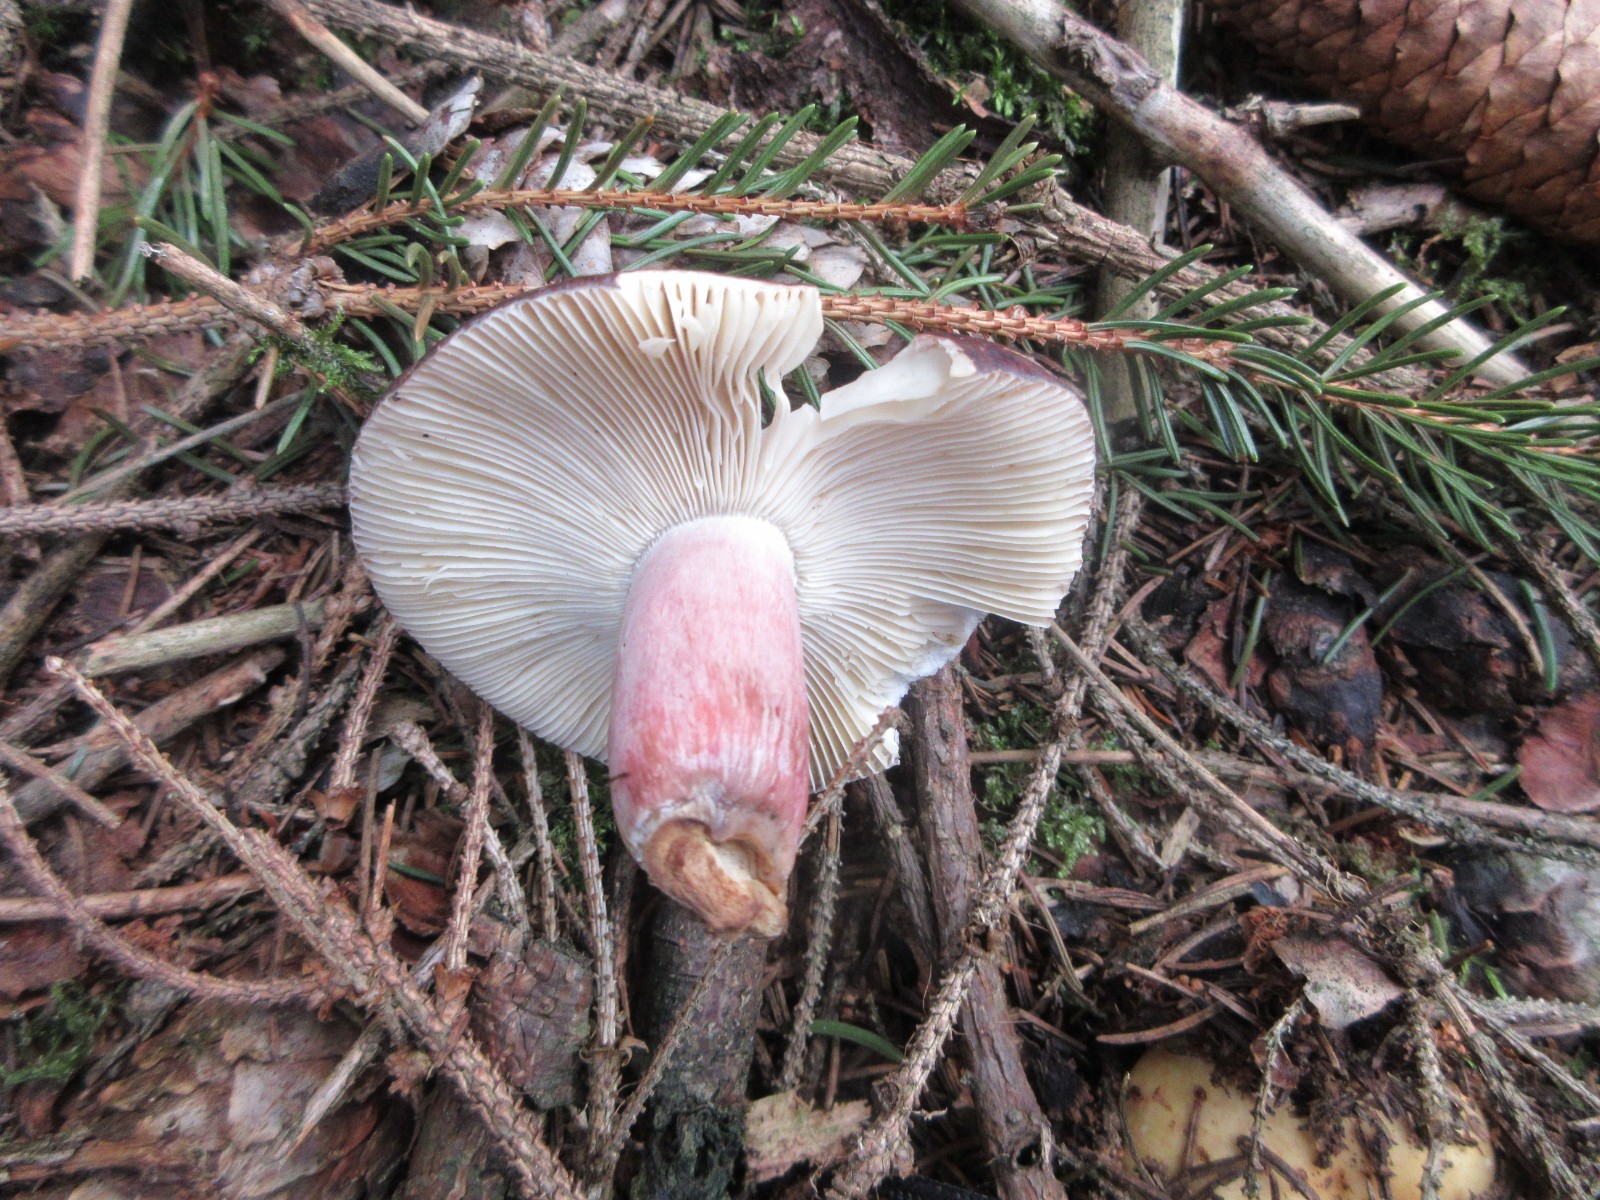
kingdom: Fungi
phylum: Basidiomycota
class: Agaricomycetes
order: Russulales
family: Russulaceae
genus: Russula
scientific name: Russula queletii
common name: Quélets skørhat
